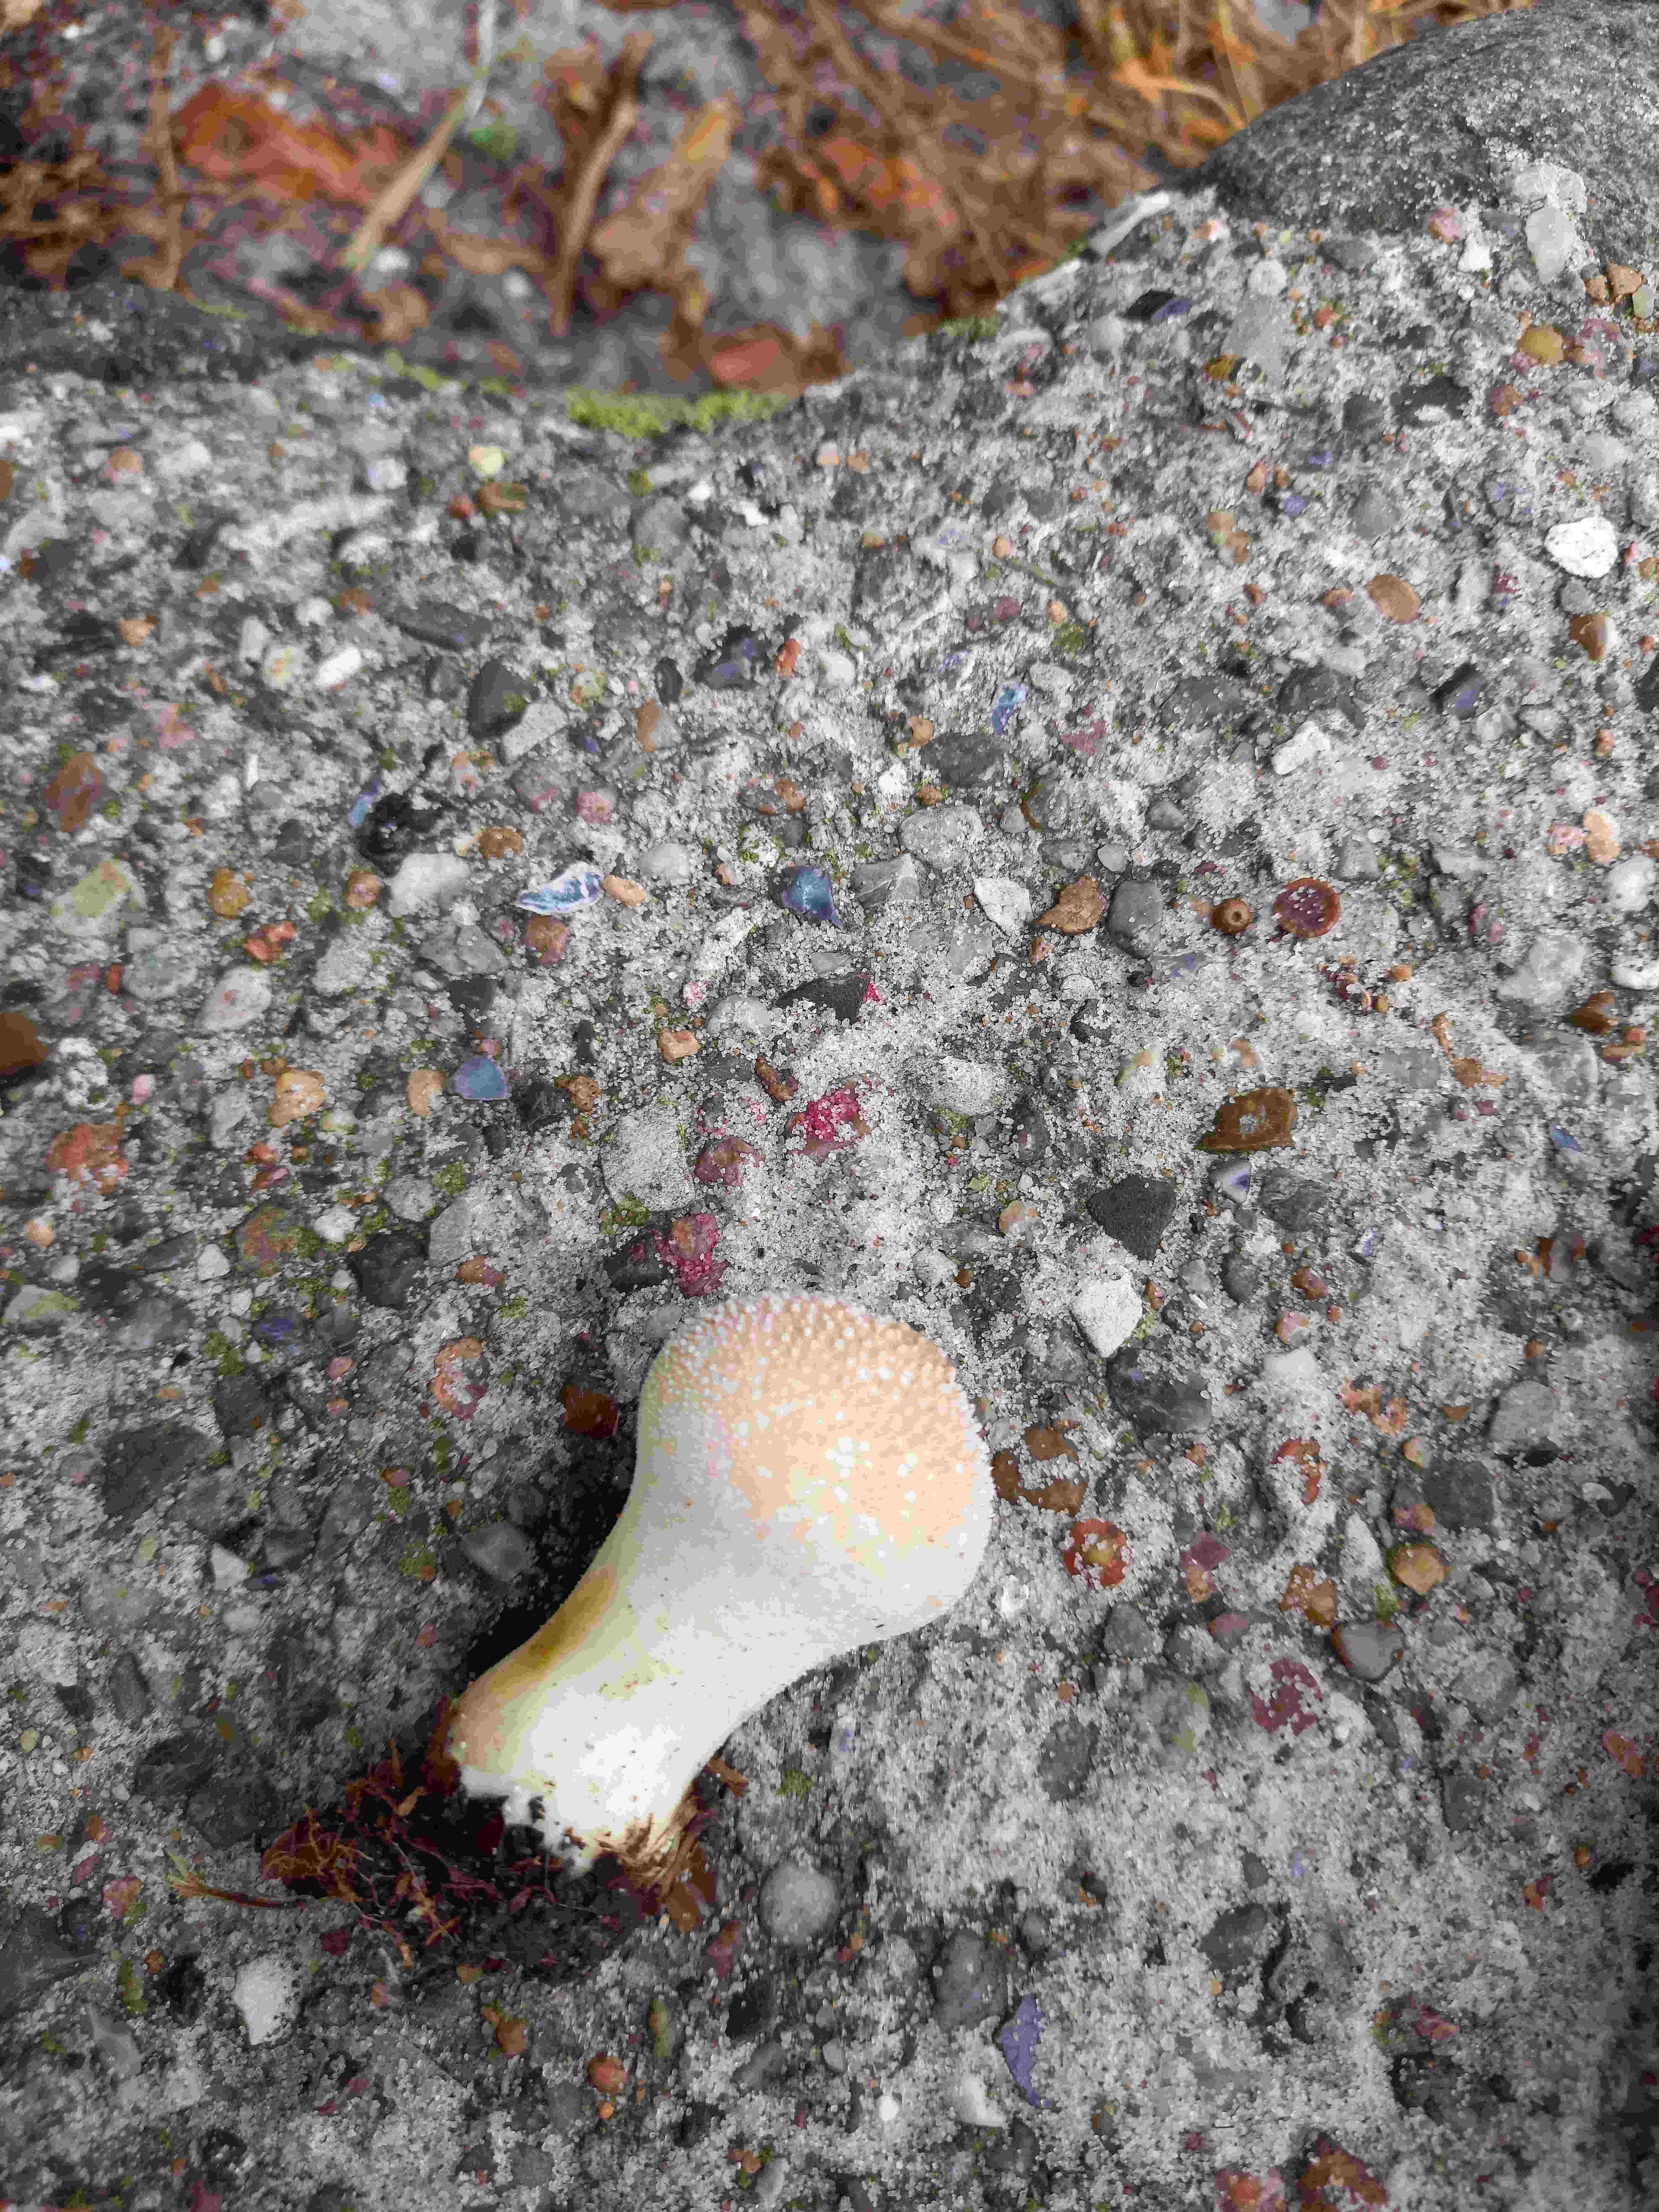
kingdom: Fungi
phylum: Basidiomycota
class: Agaricomycetes
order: Agaricales
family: Lycoperdaceae
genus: Lycoperdon
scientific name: Lycoperdon perlatum
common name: krystal-støvbold
